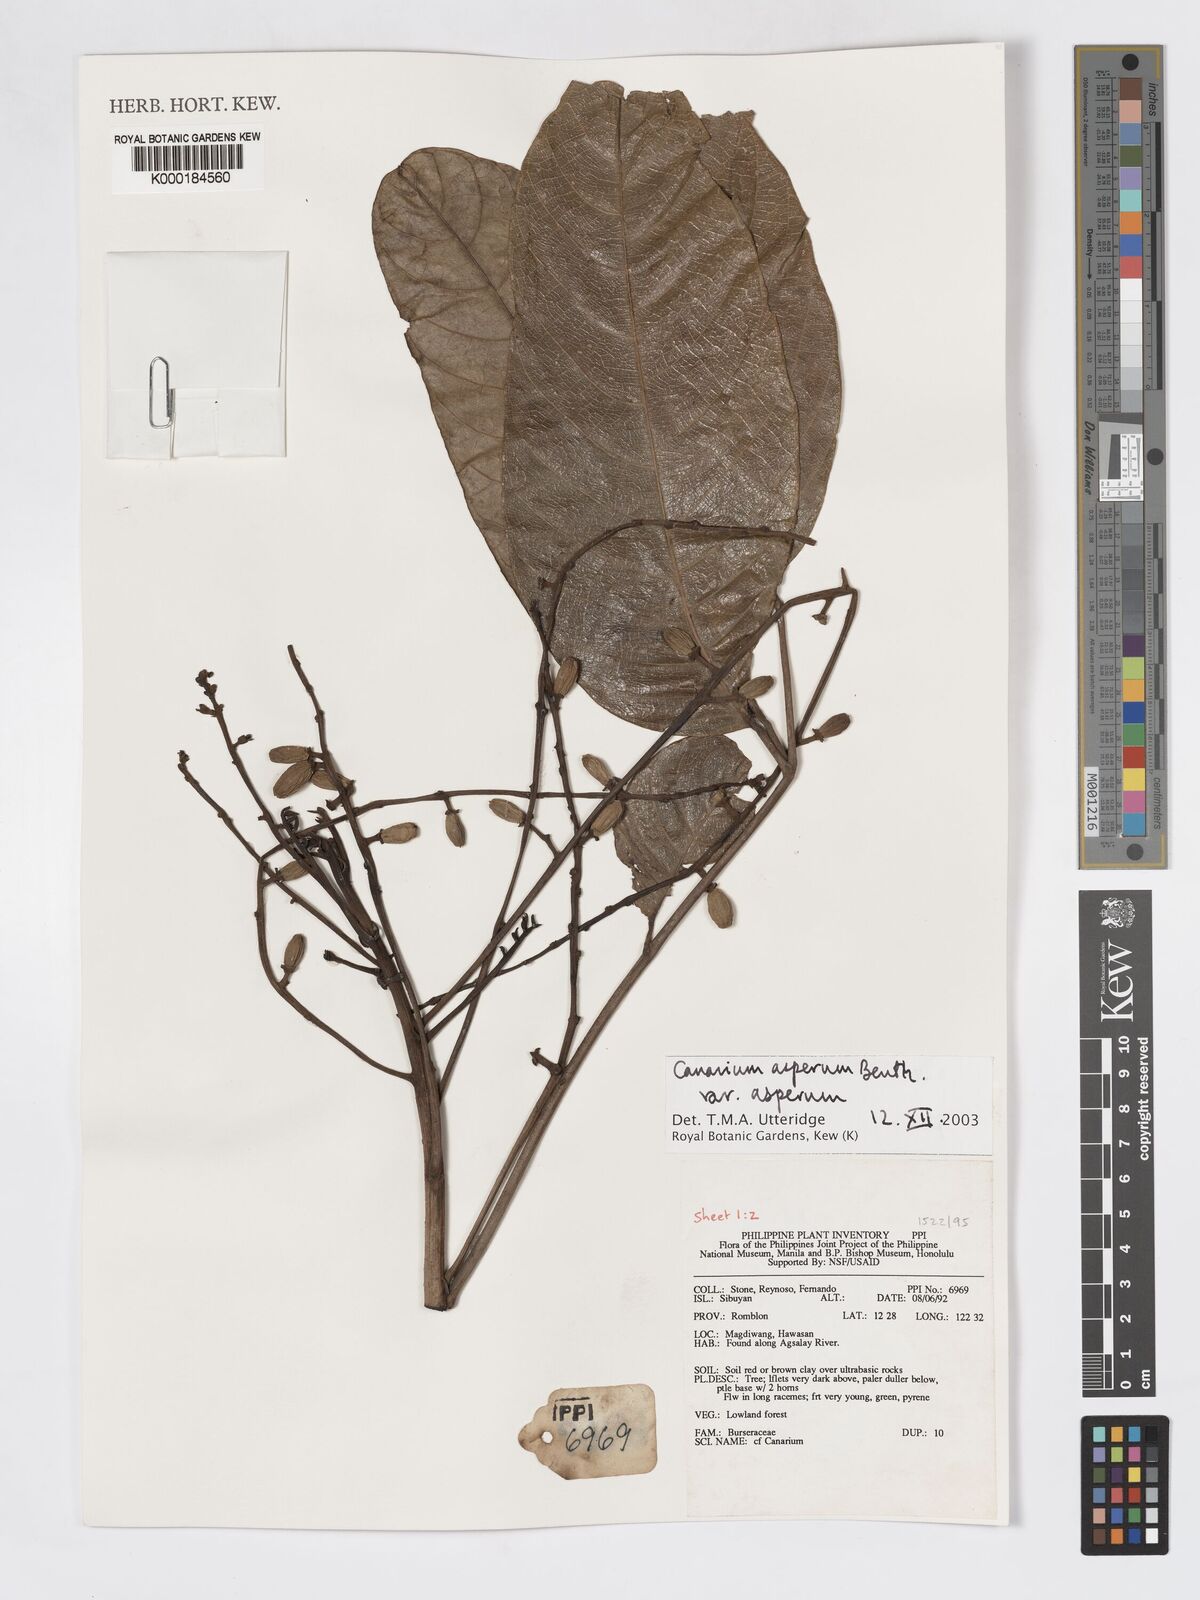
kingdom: Plantae
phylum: Tracheophyta
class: Magnoliopsida
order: Sapindales
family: Burseraceae
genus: Canarium
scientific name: Canarium asperum
